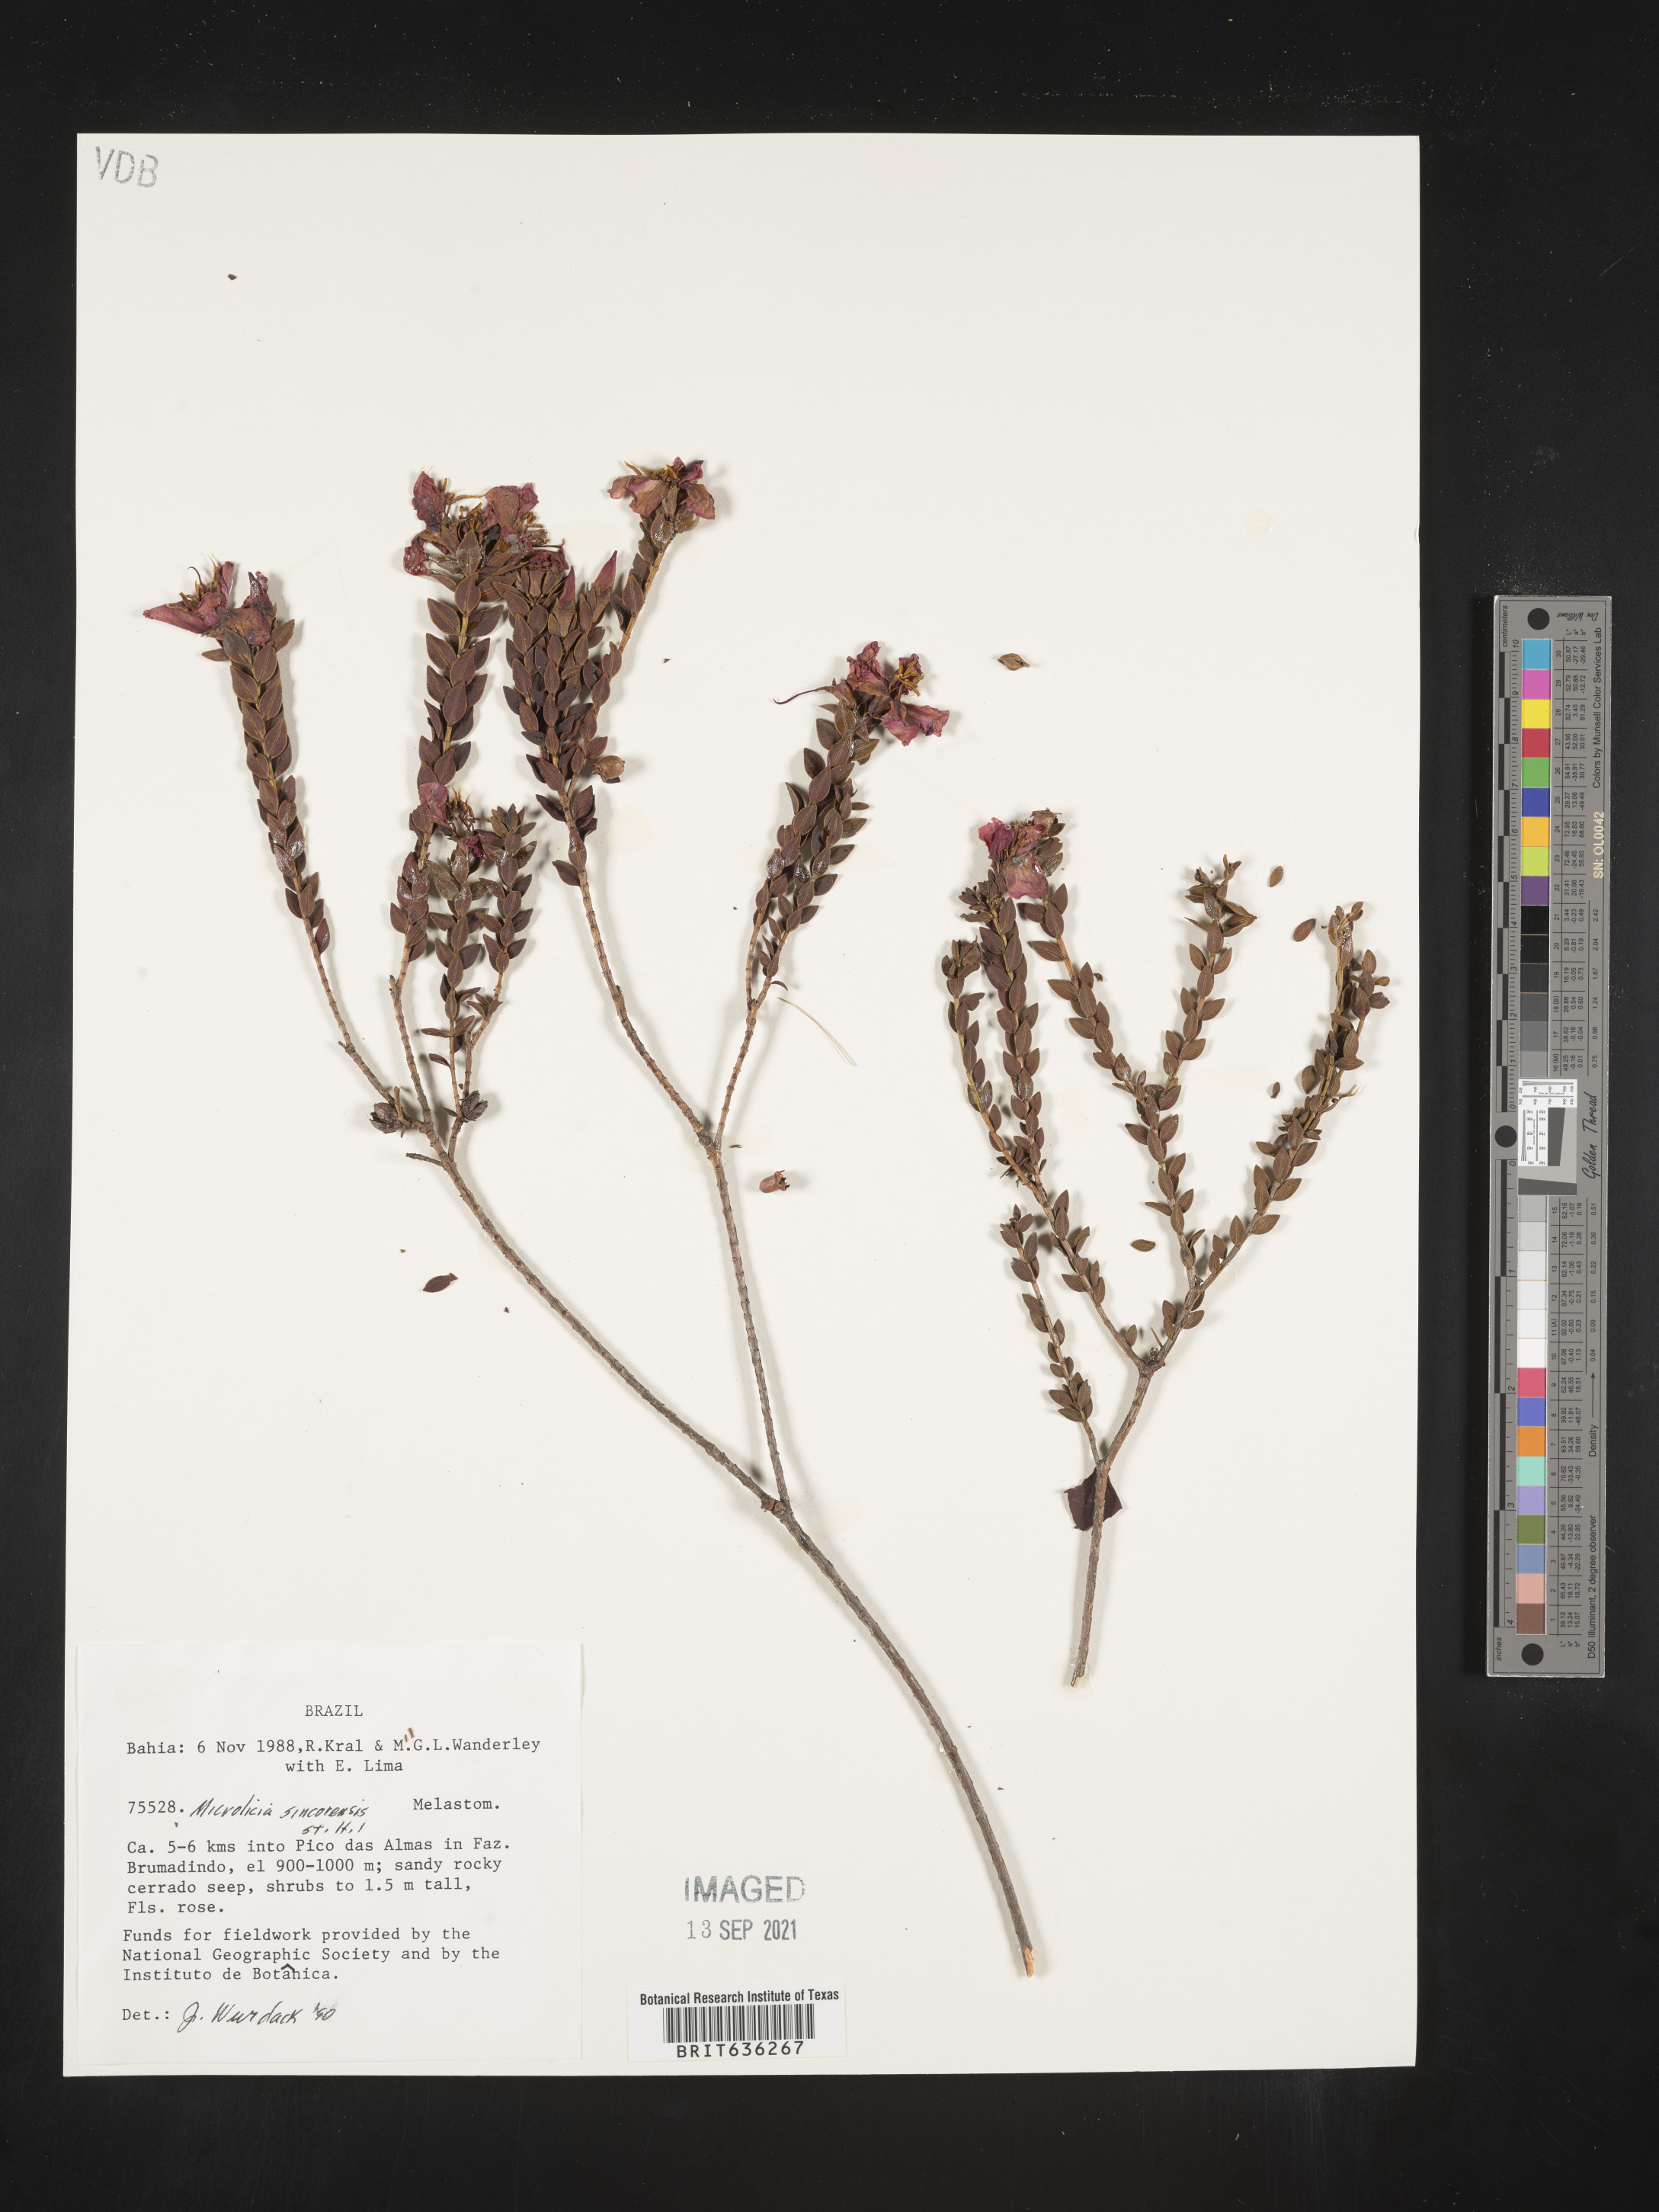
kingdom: Plantae
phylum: Tracheophyta
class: Magnoliopsida
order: Myrtales
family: Melastomataceae
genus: Microlicia
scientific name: Microlicia
